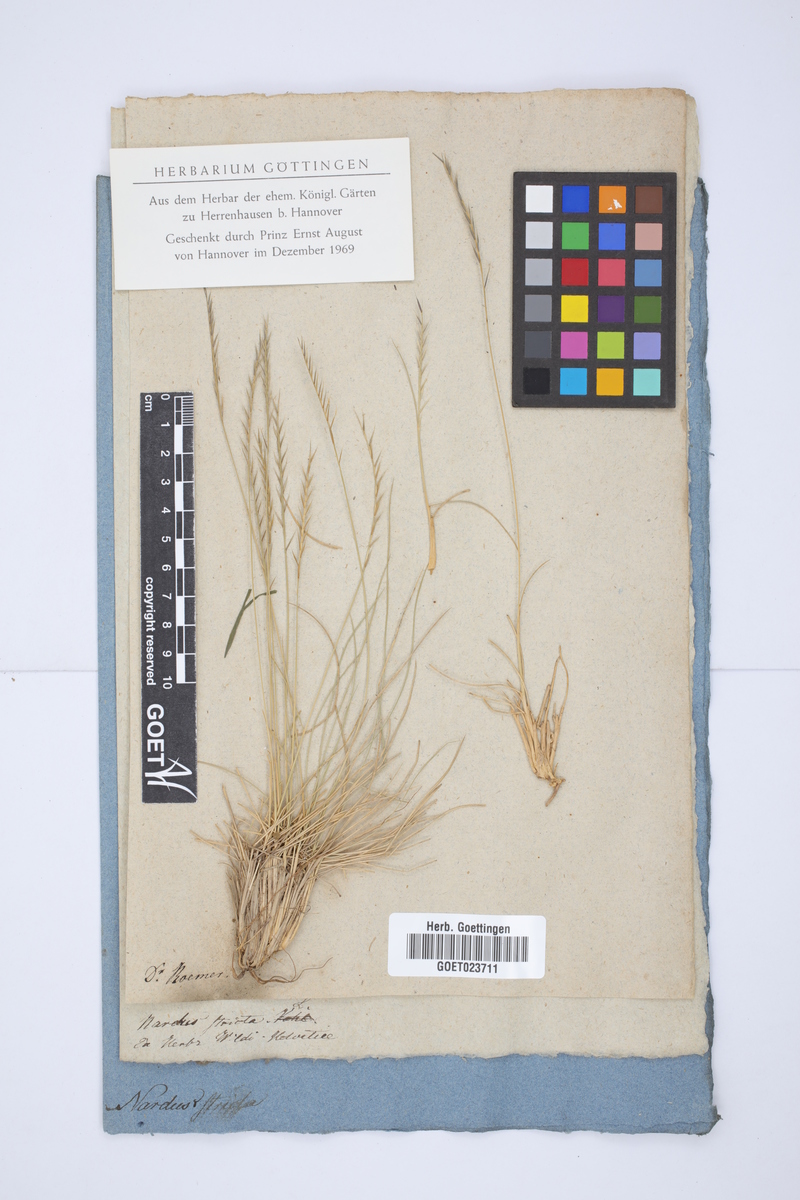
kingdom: Plantae
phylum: Tracheophyta
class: Liliopsida
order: Poales
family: Poaceae
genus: Nardus
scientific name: Nardus stricta
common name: Mat-grass
